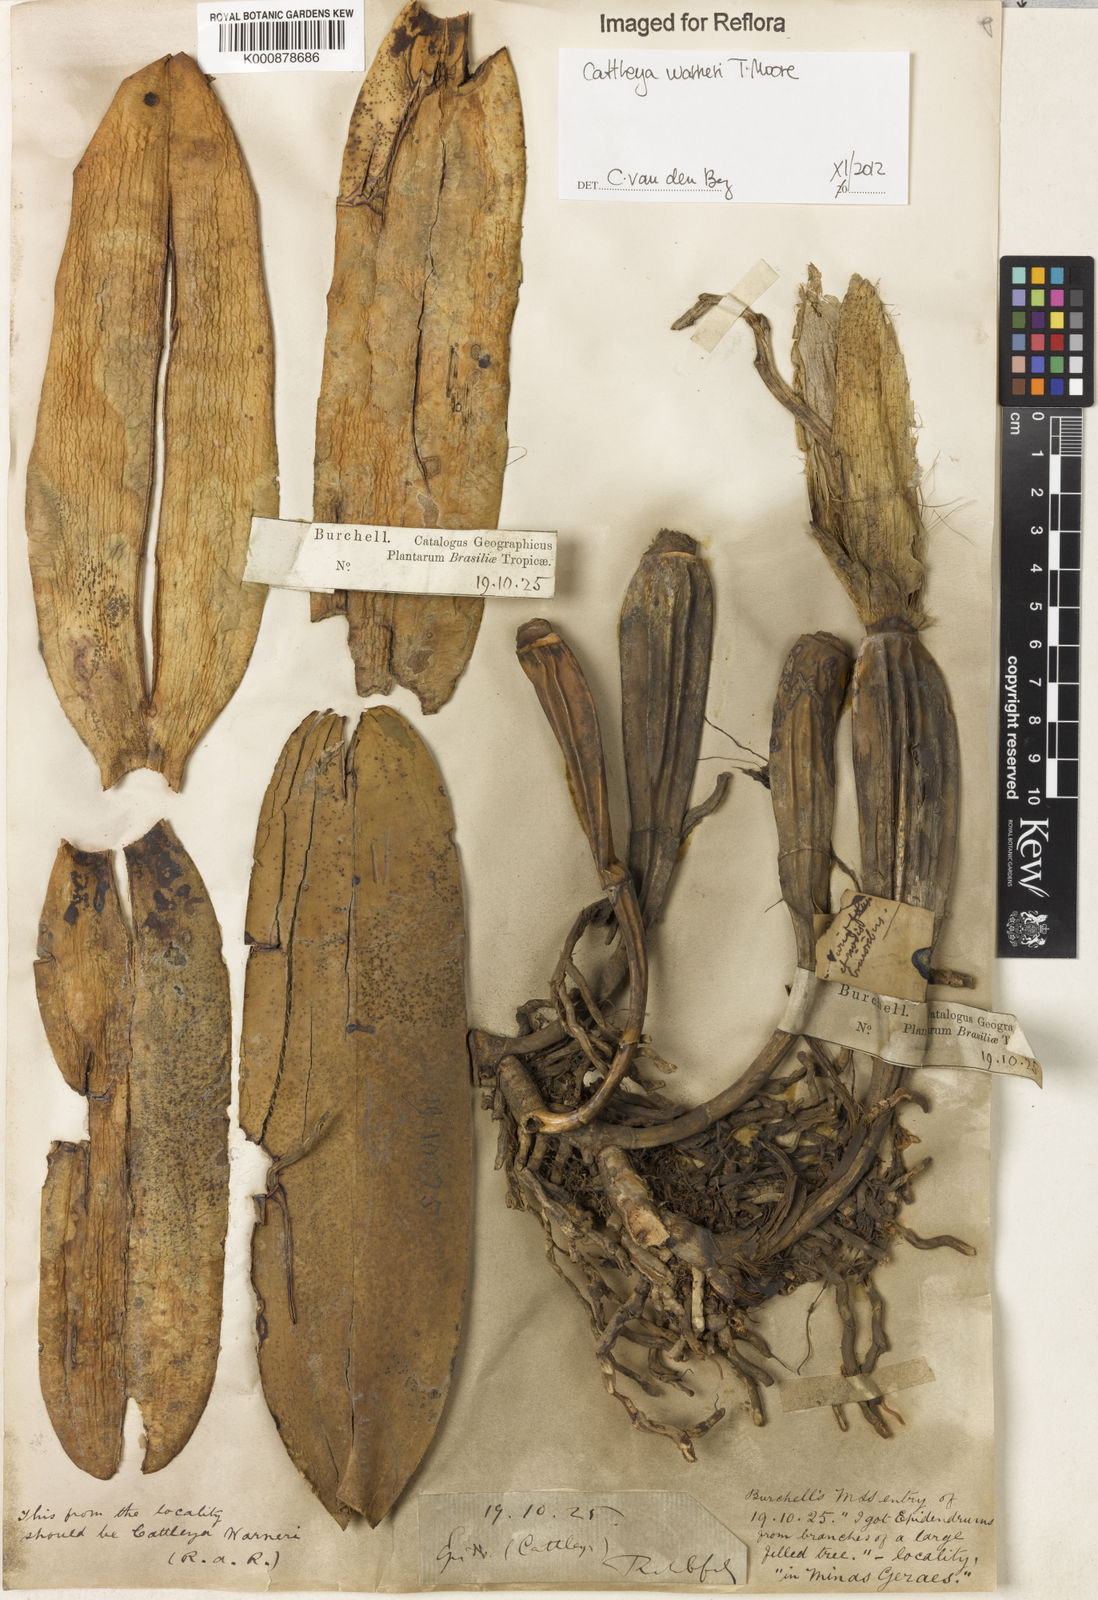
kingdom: Plantae
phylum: Tracheophyta
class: Liliopsida
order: Asparagales
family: Orchidaceae
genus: Cattleya
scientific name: Cattleya
